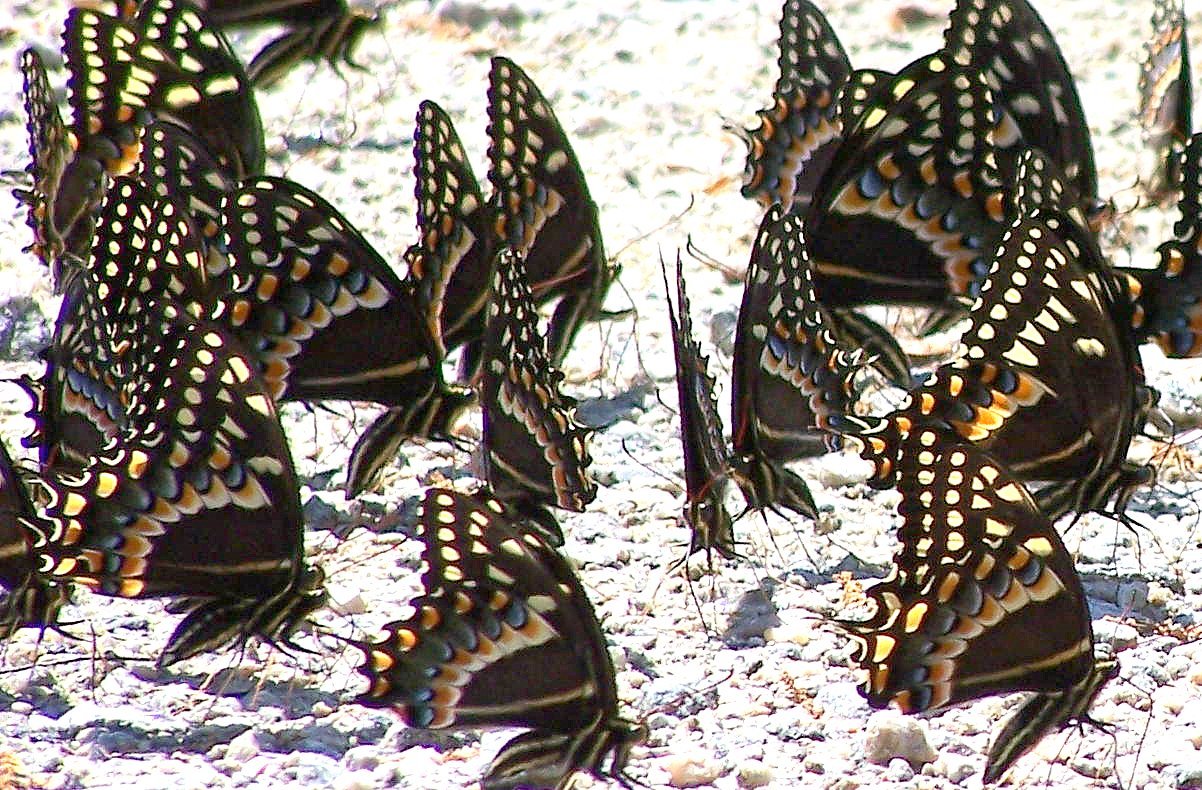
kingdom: Animalia
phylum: Arthropoda
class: Insecta
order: Lepidoptera
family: Papilionidae
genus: Pterourus
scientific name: Pterourus palamedes
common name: Palamedes Swallowtail
